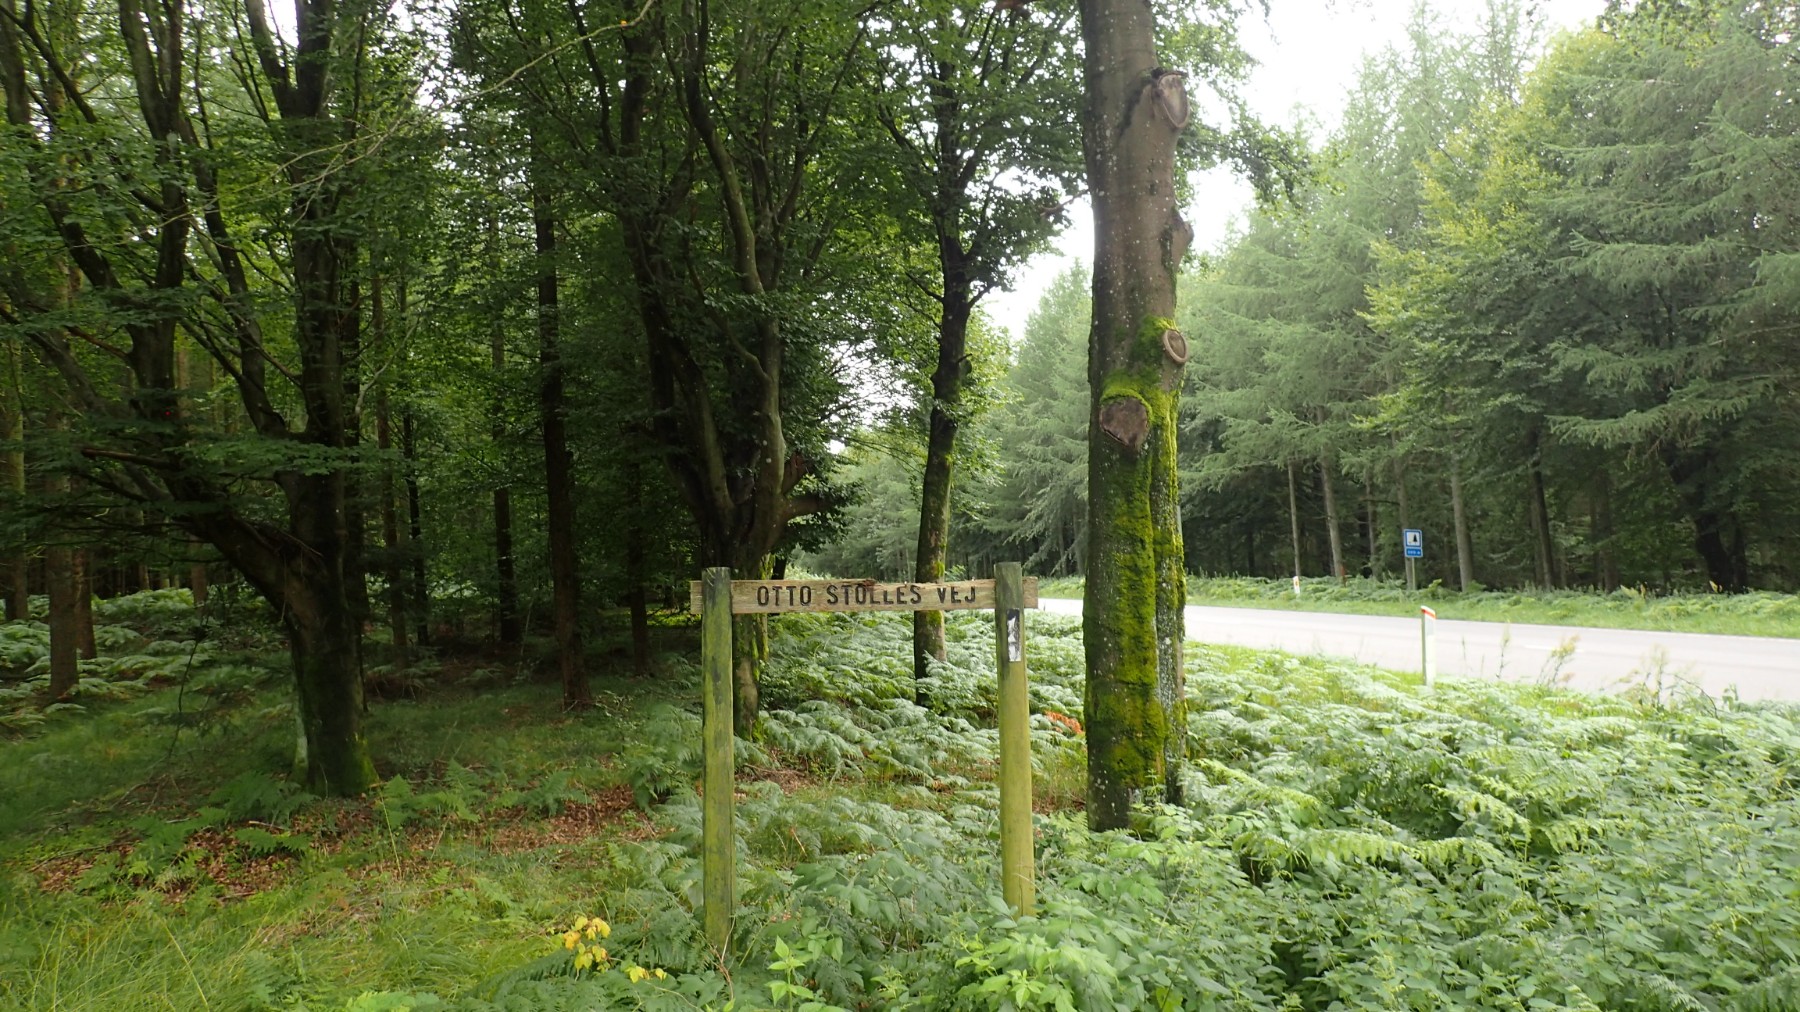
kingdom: Fungi
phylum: Basidiomycota
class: Agaricomycetes
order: Phallales
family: Phallaceae
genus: Phallus
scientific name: Phallus impudicus
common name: almindelig stinksvamp
